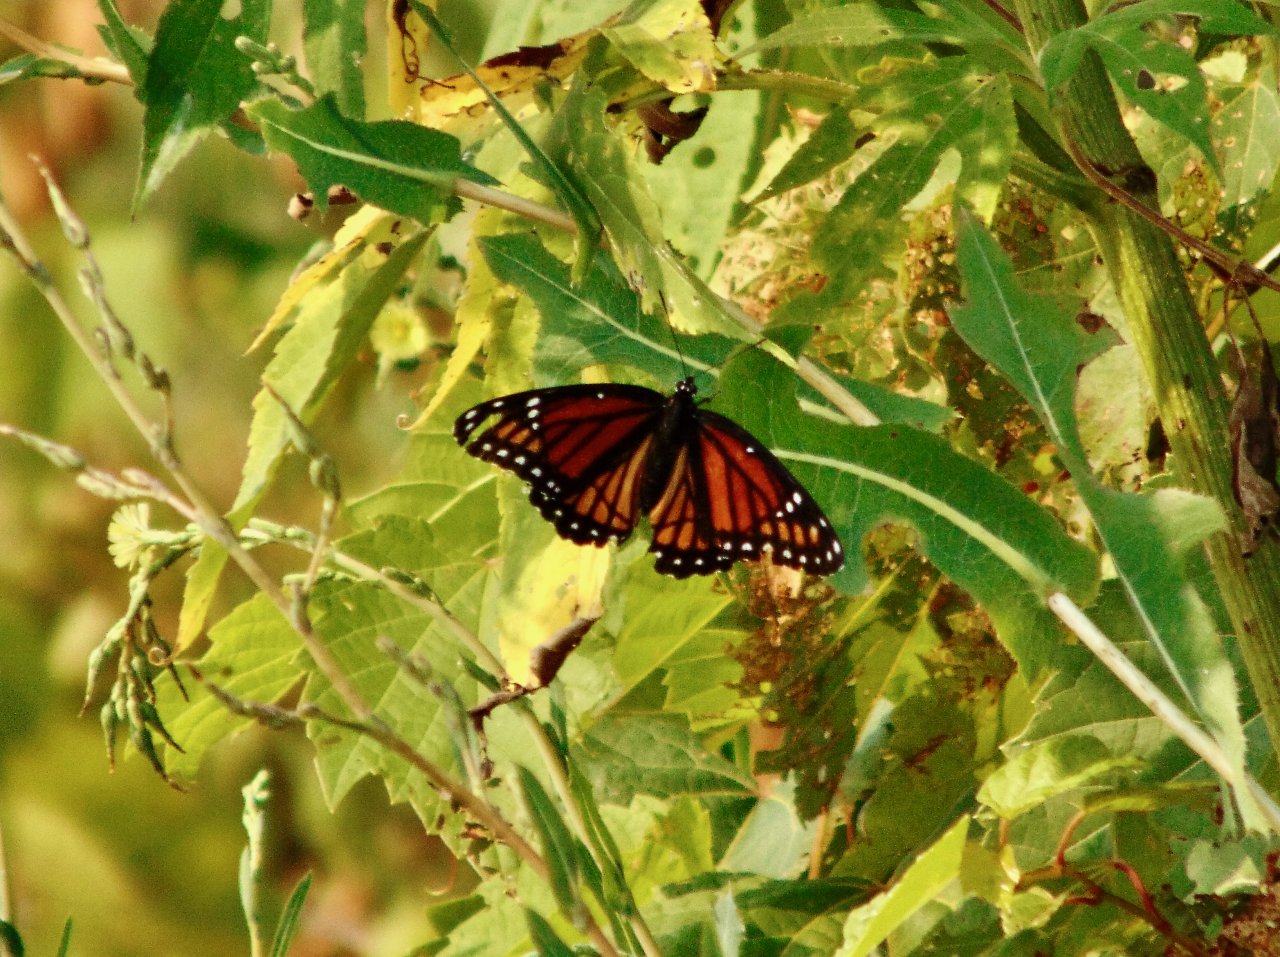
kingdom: Animalia
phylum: Arthropoda
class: Insecta
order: Lepidoptera
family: Nymphalidae
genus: Limenitis
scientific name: Limenitis archippus
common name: Viceroy
